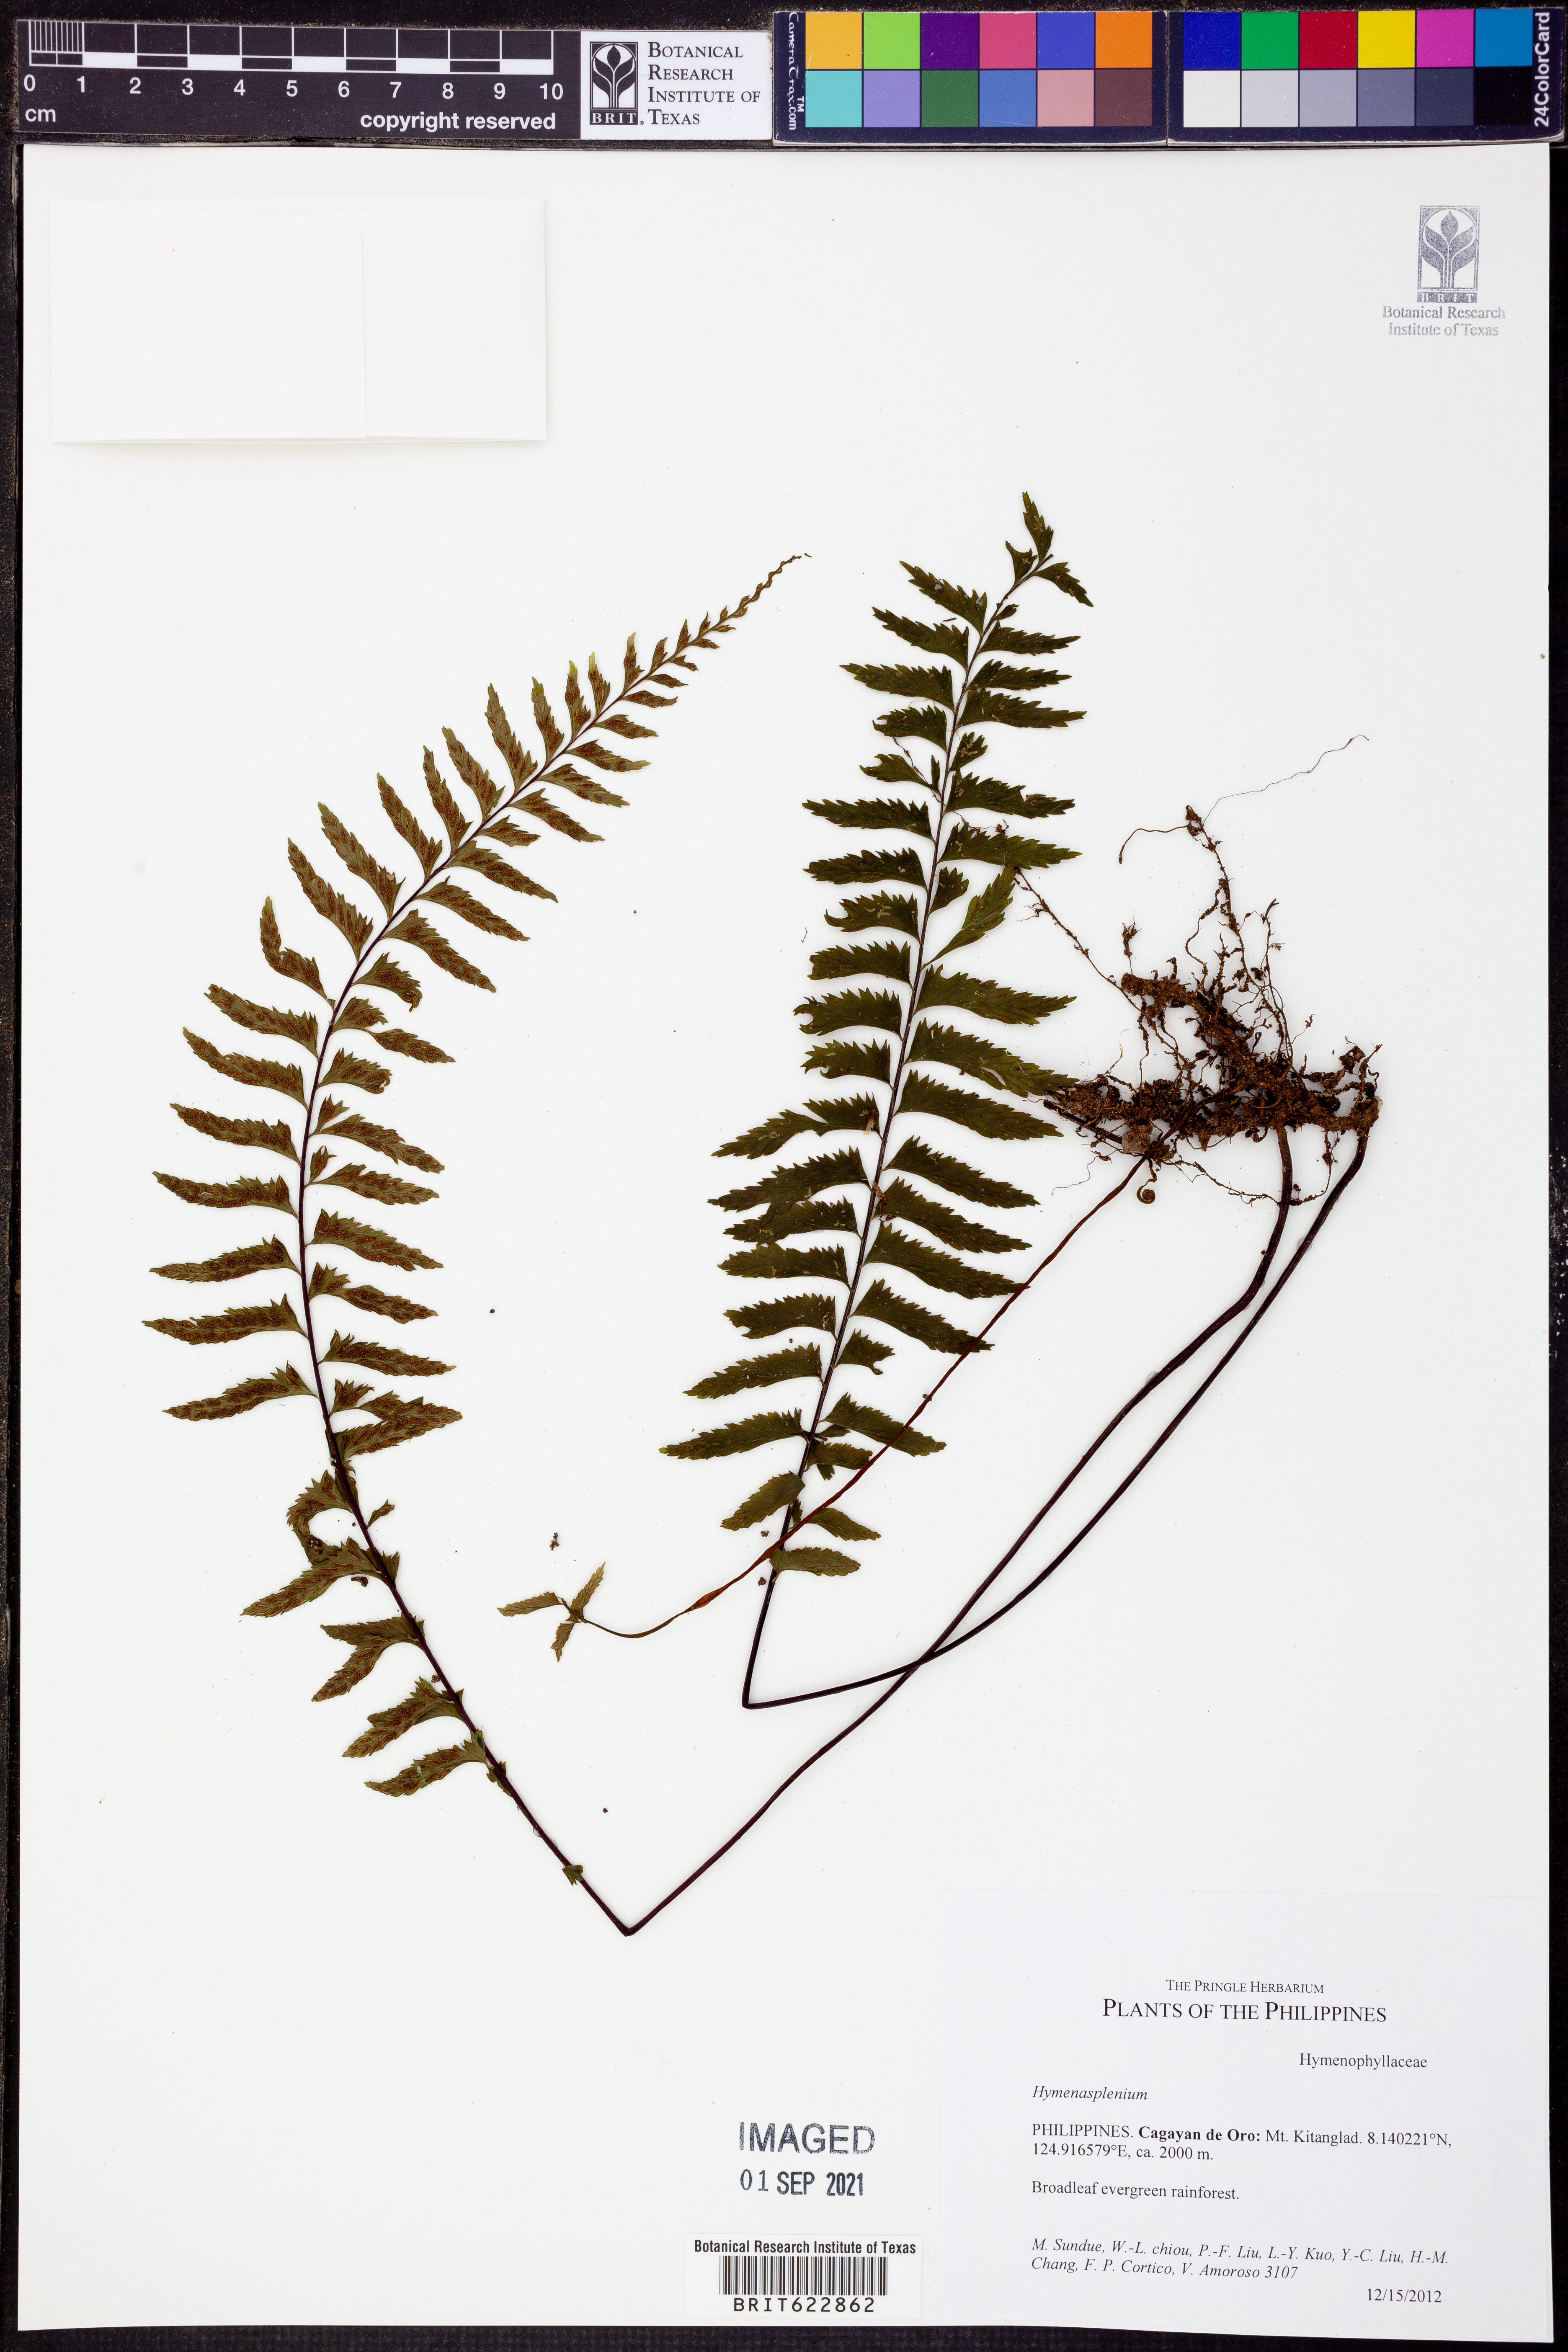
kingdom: Plantae
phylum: Tracheophyta
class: Polypodiopsida
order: Polypodiales
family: Aspleniaceae
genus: Hymenasplenium
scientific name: Hymenasplenium
